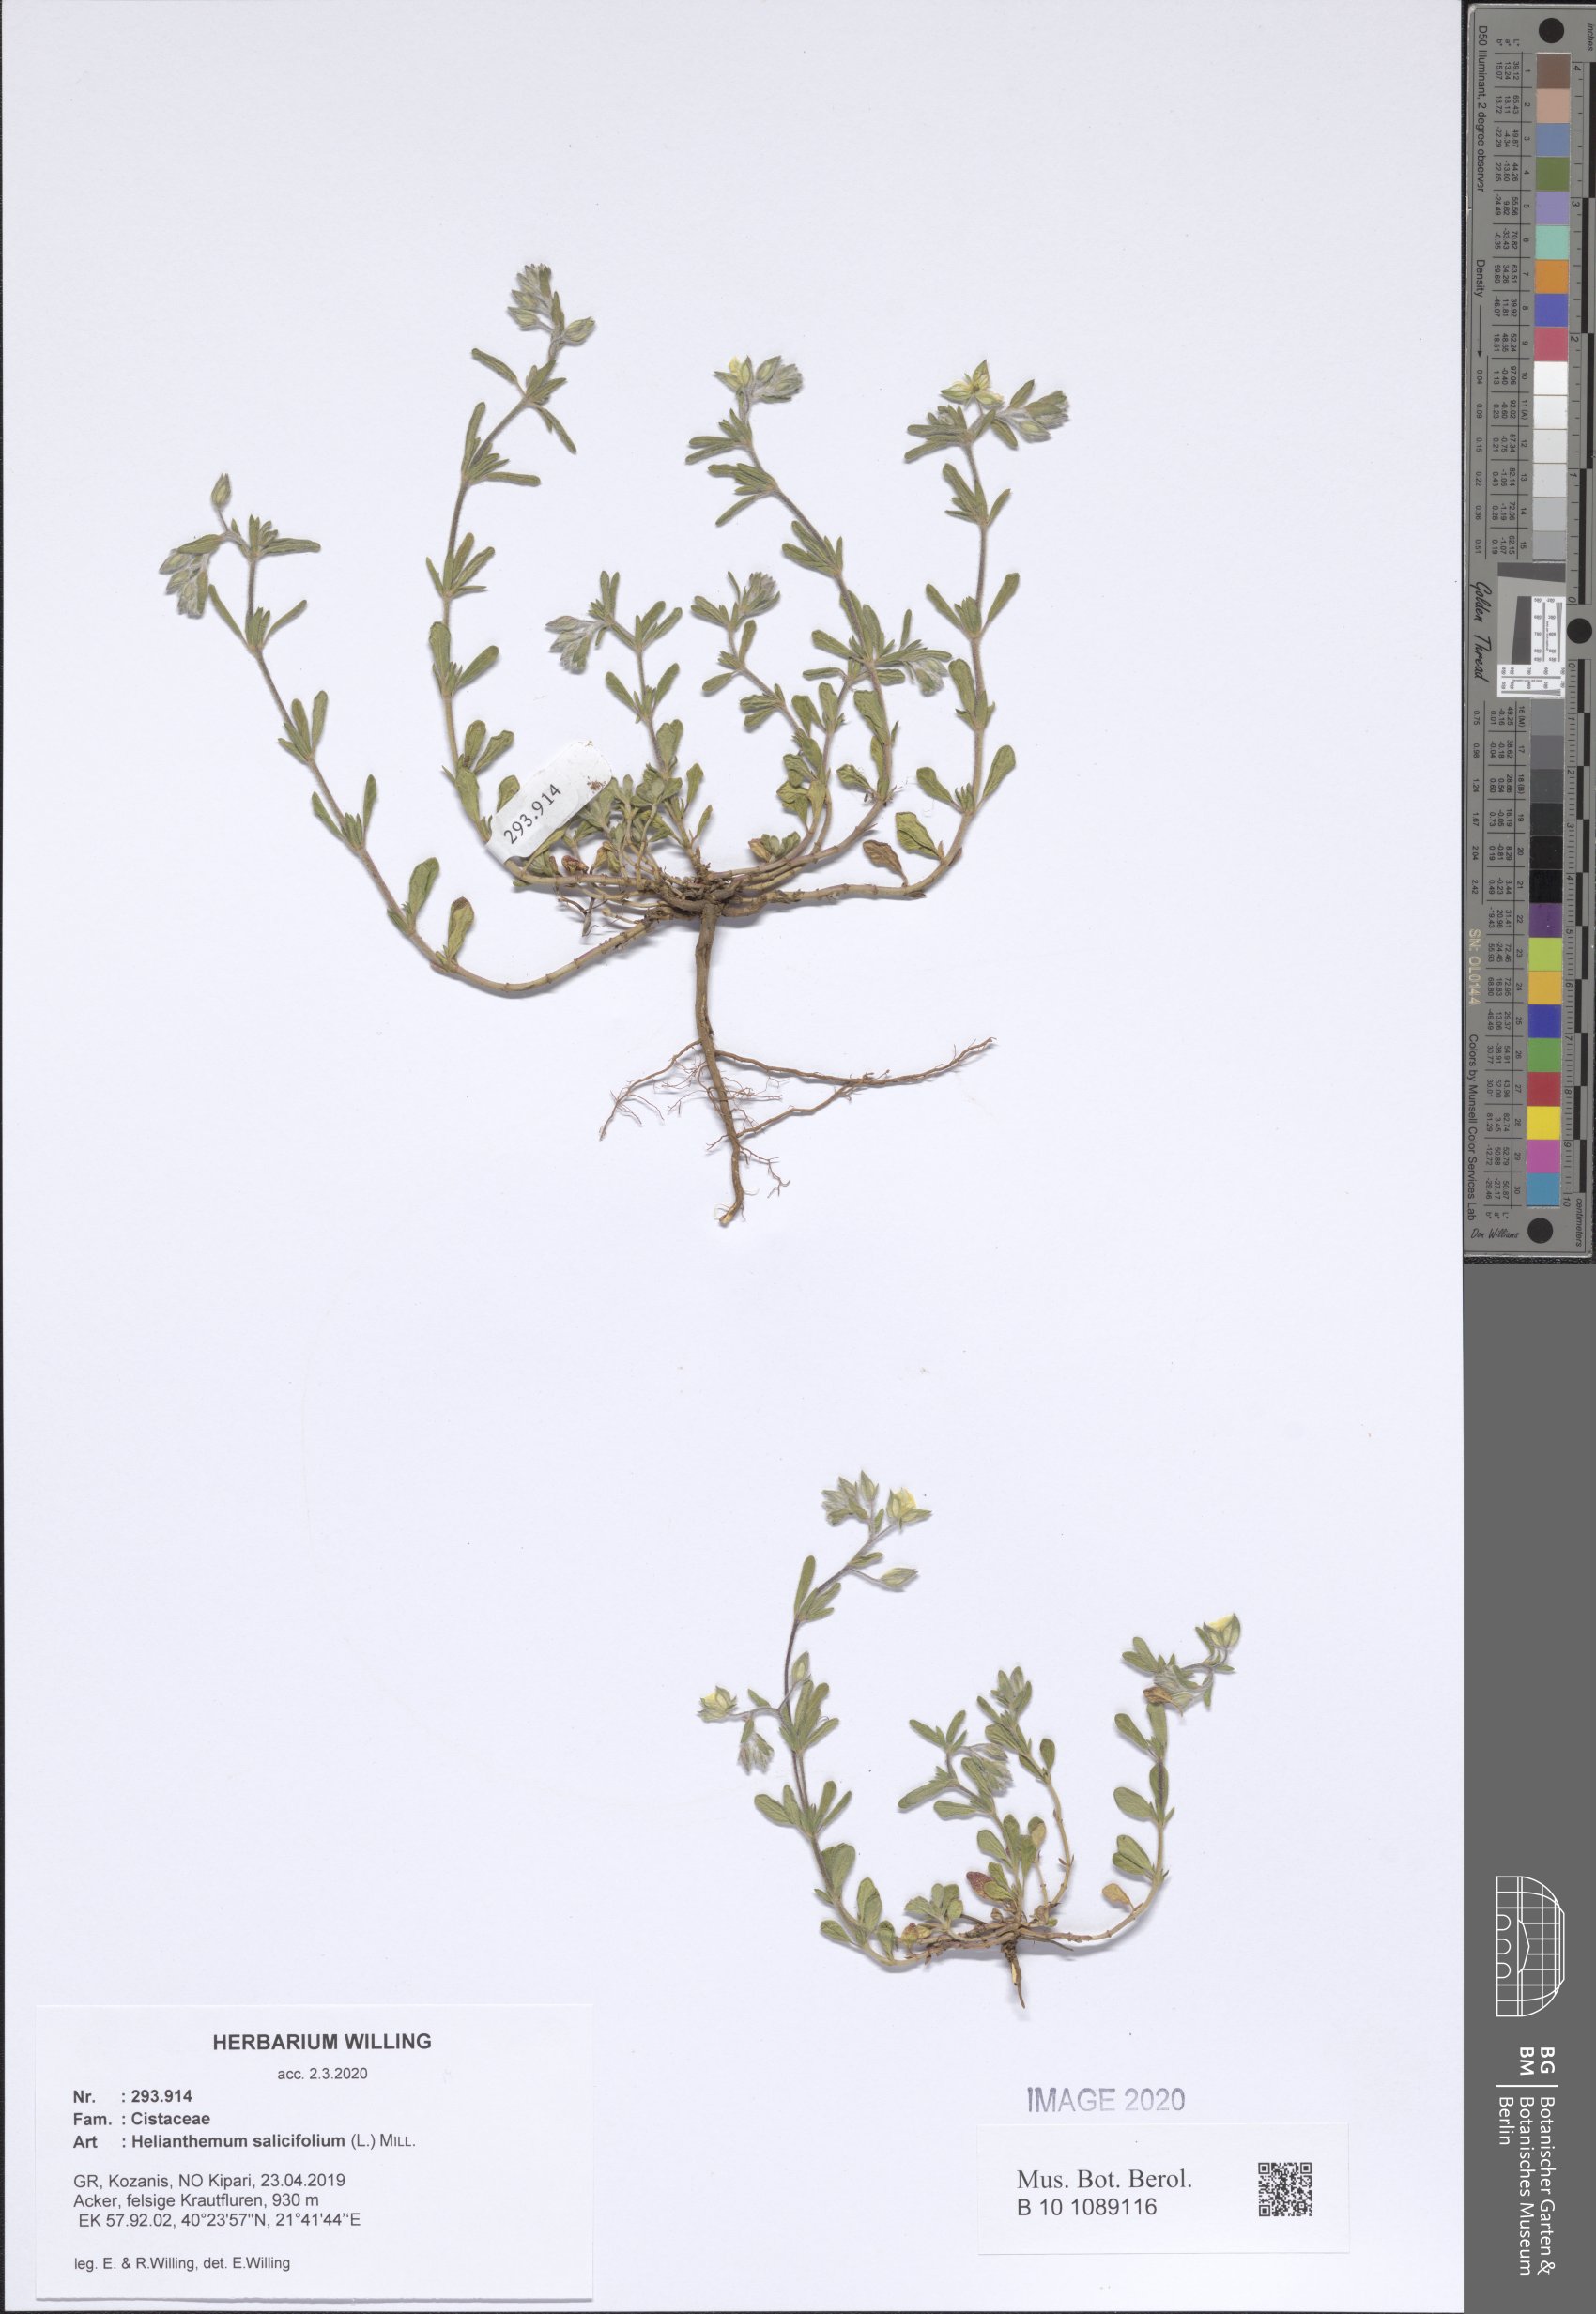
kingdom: Plantae
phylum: Tracheophyta
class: Magnoliopsida
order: Malvales
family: Cistaceae
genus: Helianthemum
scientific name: Helianthemum salicifolium
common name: Willowleaf frostweed
